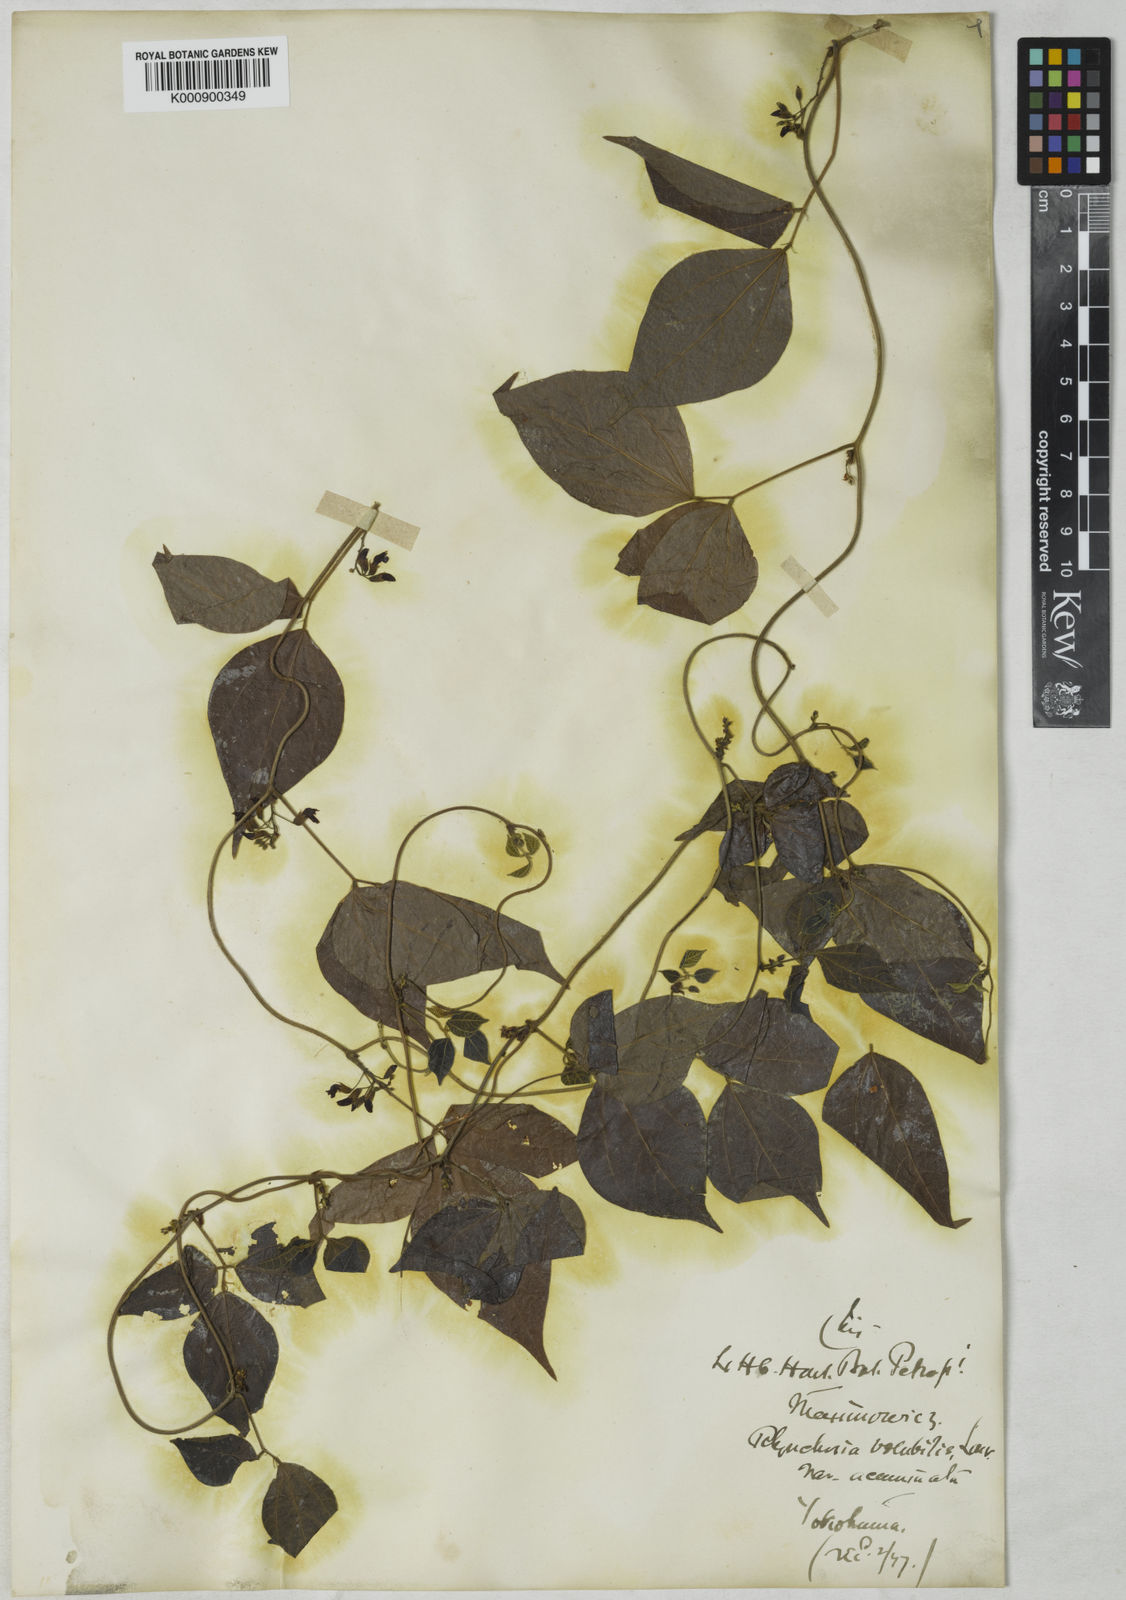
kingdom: Plantae
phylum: Tracheophyta
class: Magnoliopsida
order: Fabales
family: Fabaceae
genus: Rhynchosia
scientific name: Rhynchosia volubilis
